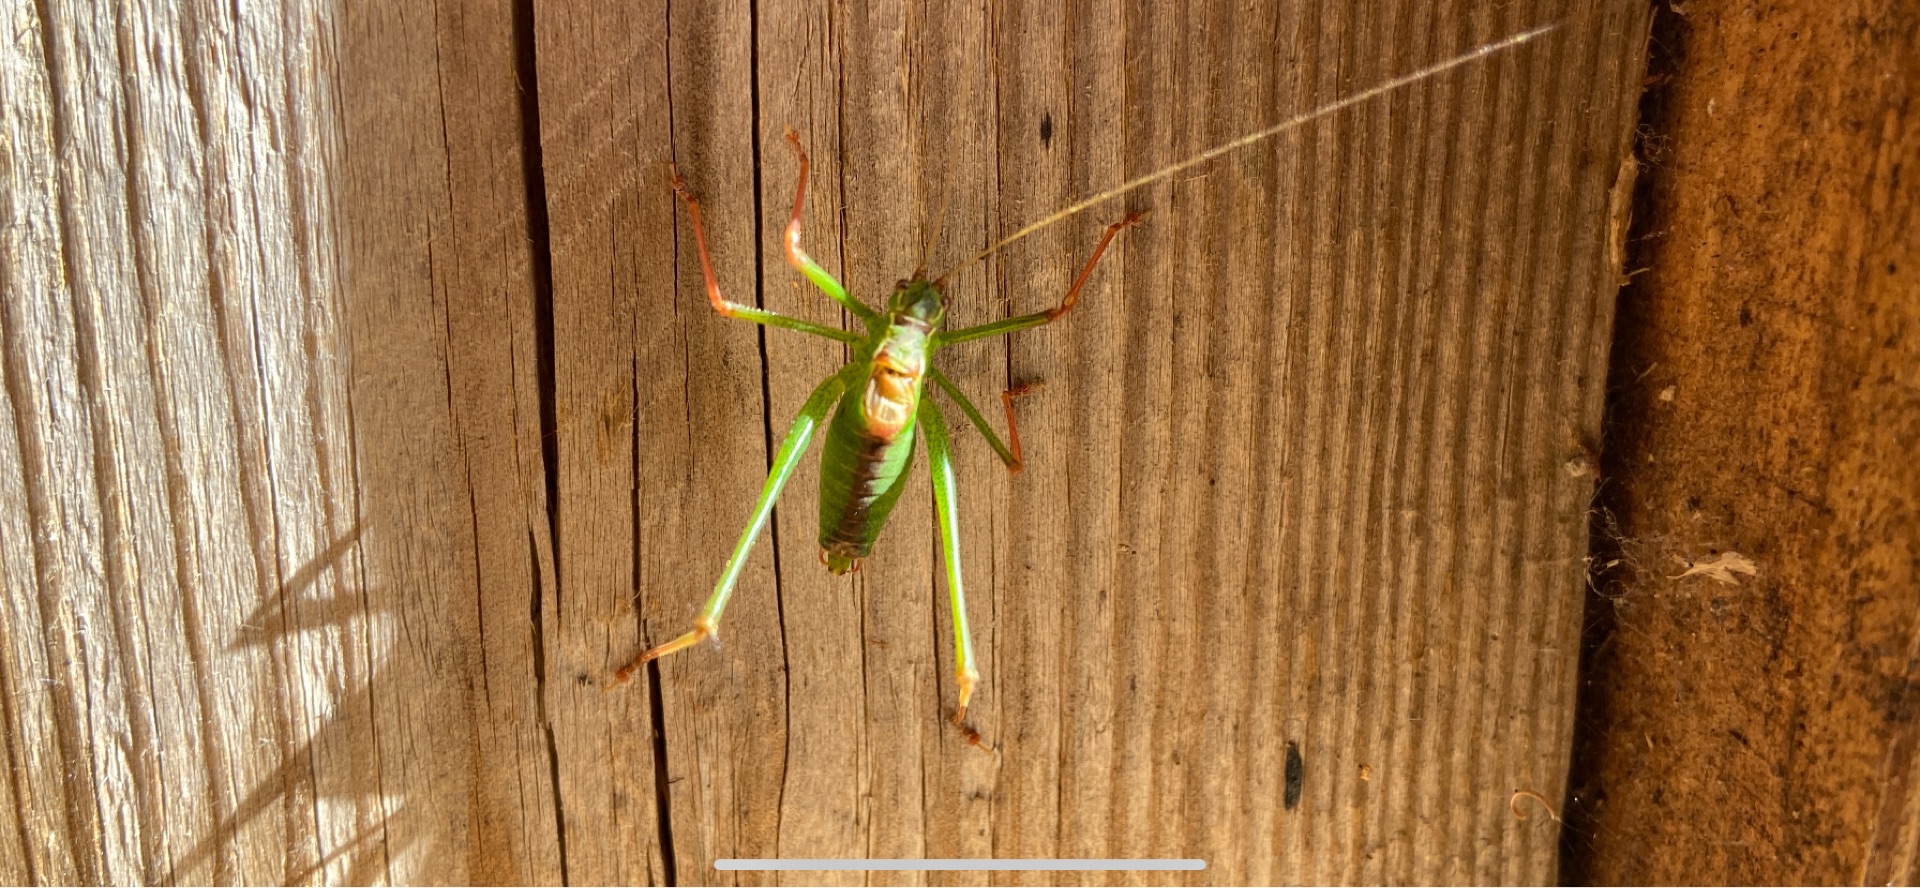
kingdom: Animalia
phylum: Arthropoda
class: Insecta
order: Orthoptera
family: Tettigoniidae
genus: Leptophyes
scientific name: Leptophyes punctatissima
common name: Krumknivgræshoppe
